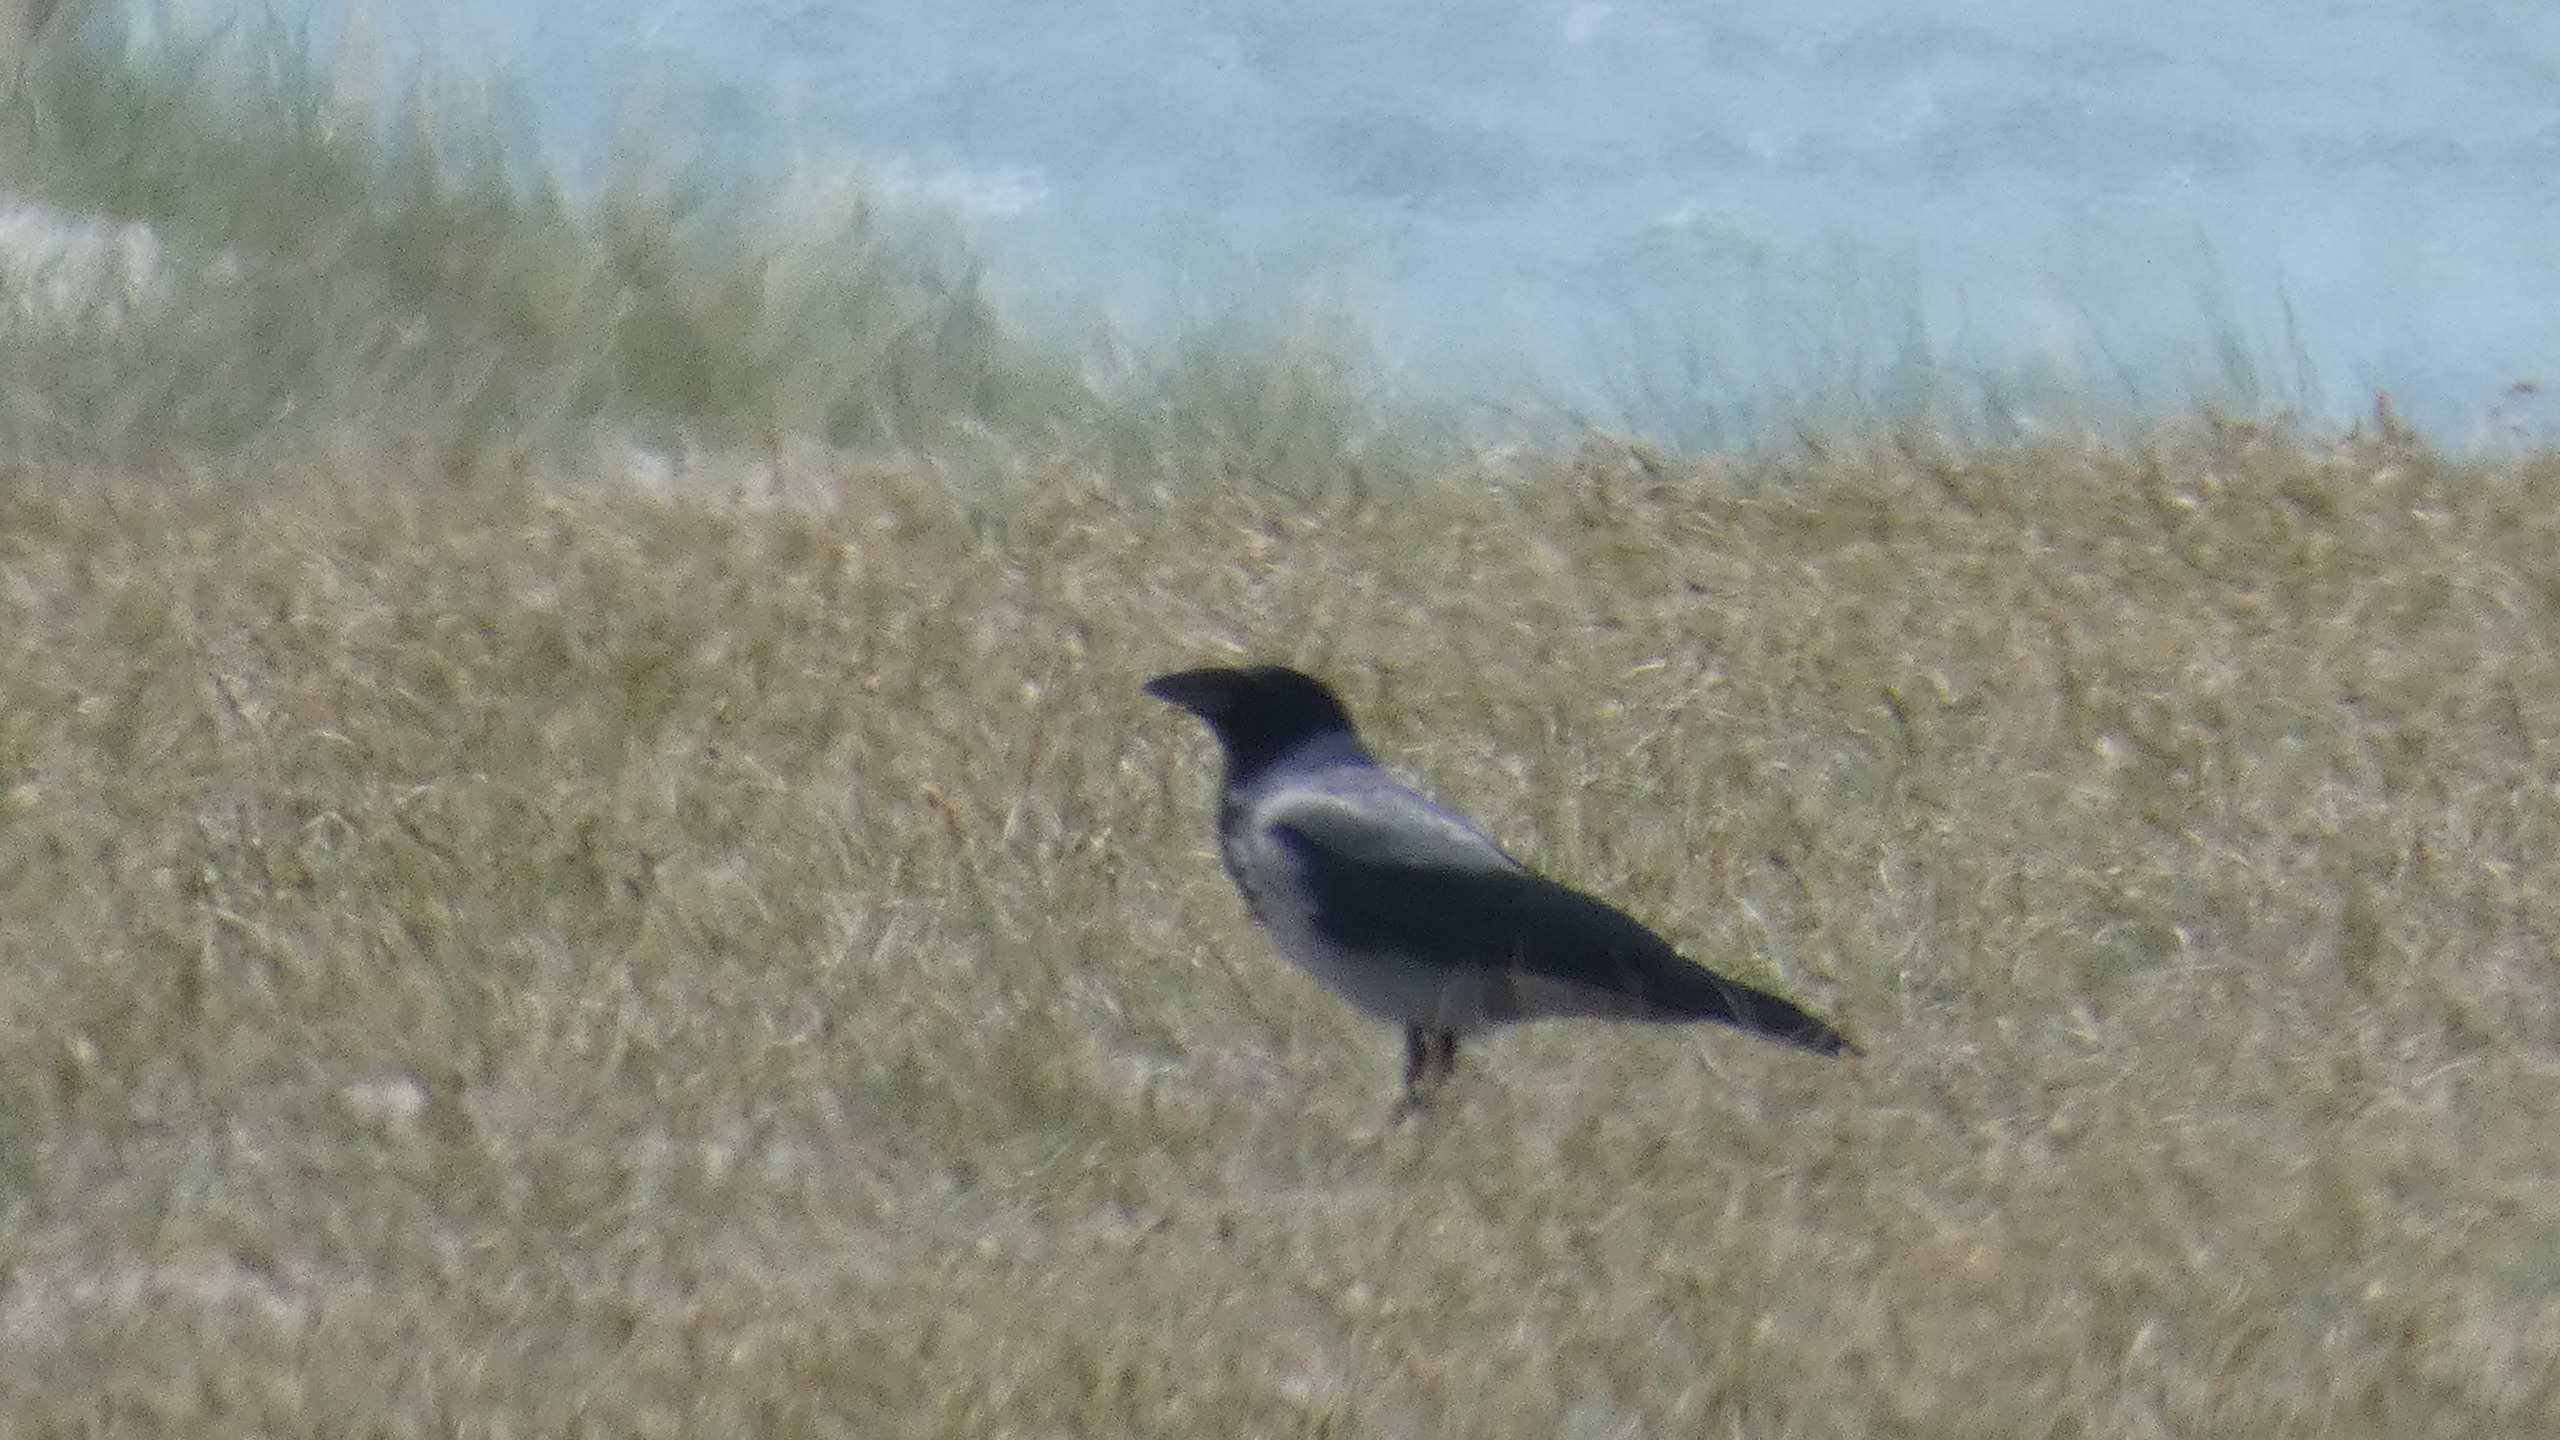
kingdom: Animalia
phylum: Chordata
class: Aves
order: Passeriformes
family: Corvidae
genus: Corvus
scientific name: Corvus cornix
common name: Gråkrage
